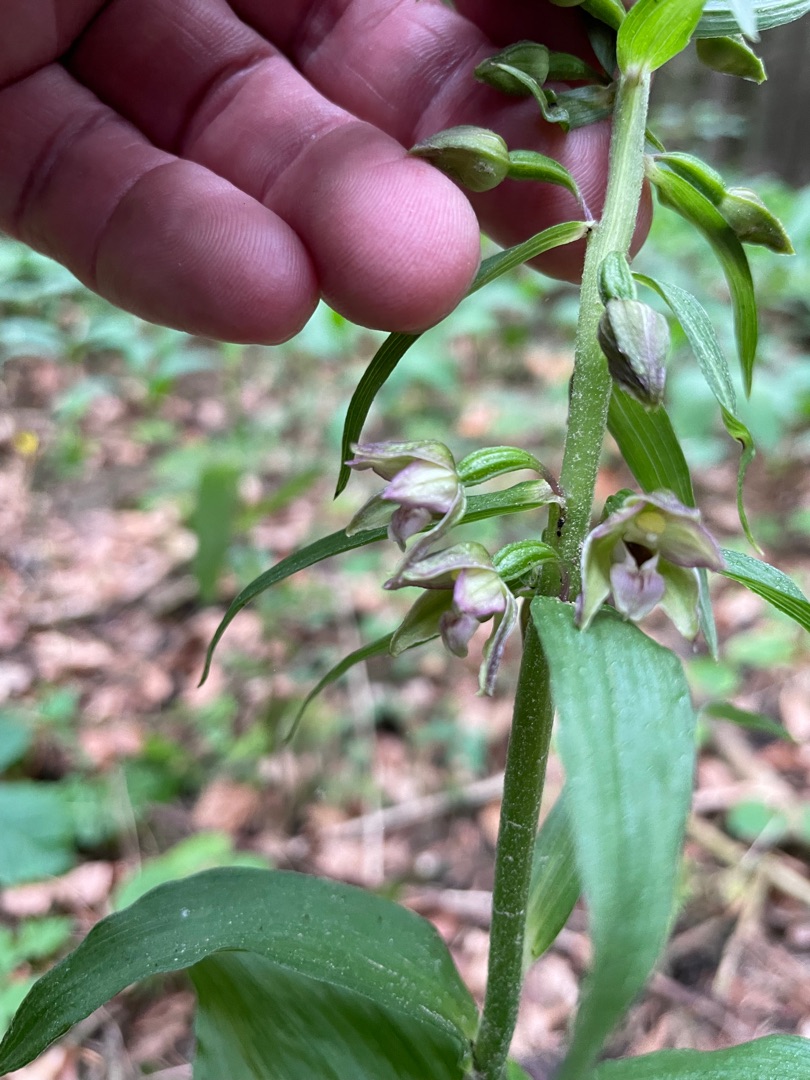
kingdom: Plantae
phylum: Tracheophyta
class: Liliopsida
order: Asparagales
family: Orchidaceae
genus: Epipactis
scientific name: Epipactis helleborine
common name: Skov-hullæbe
